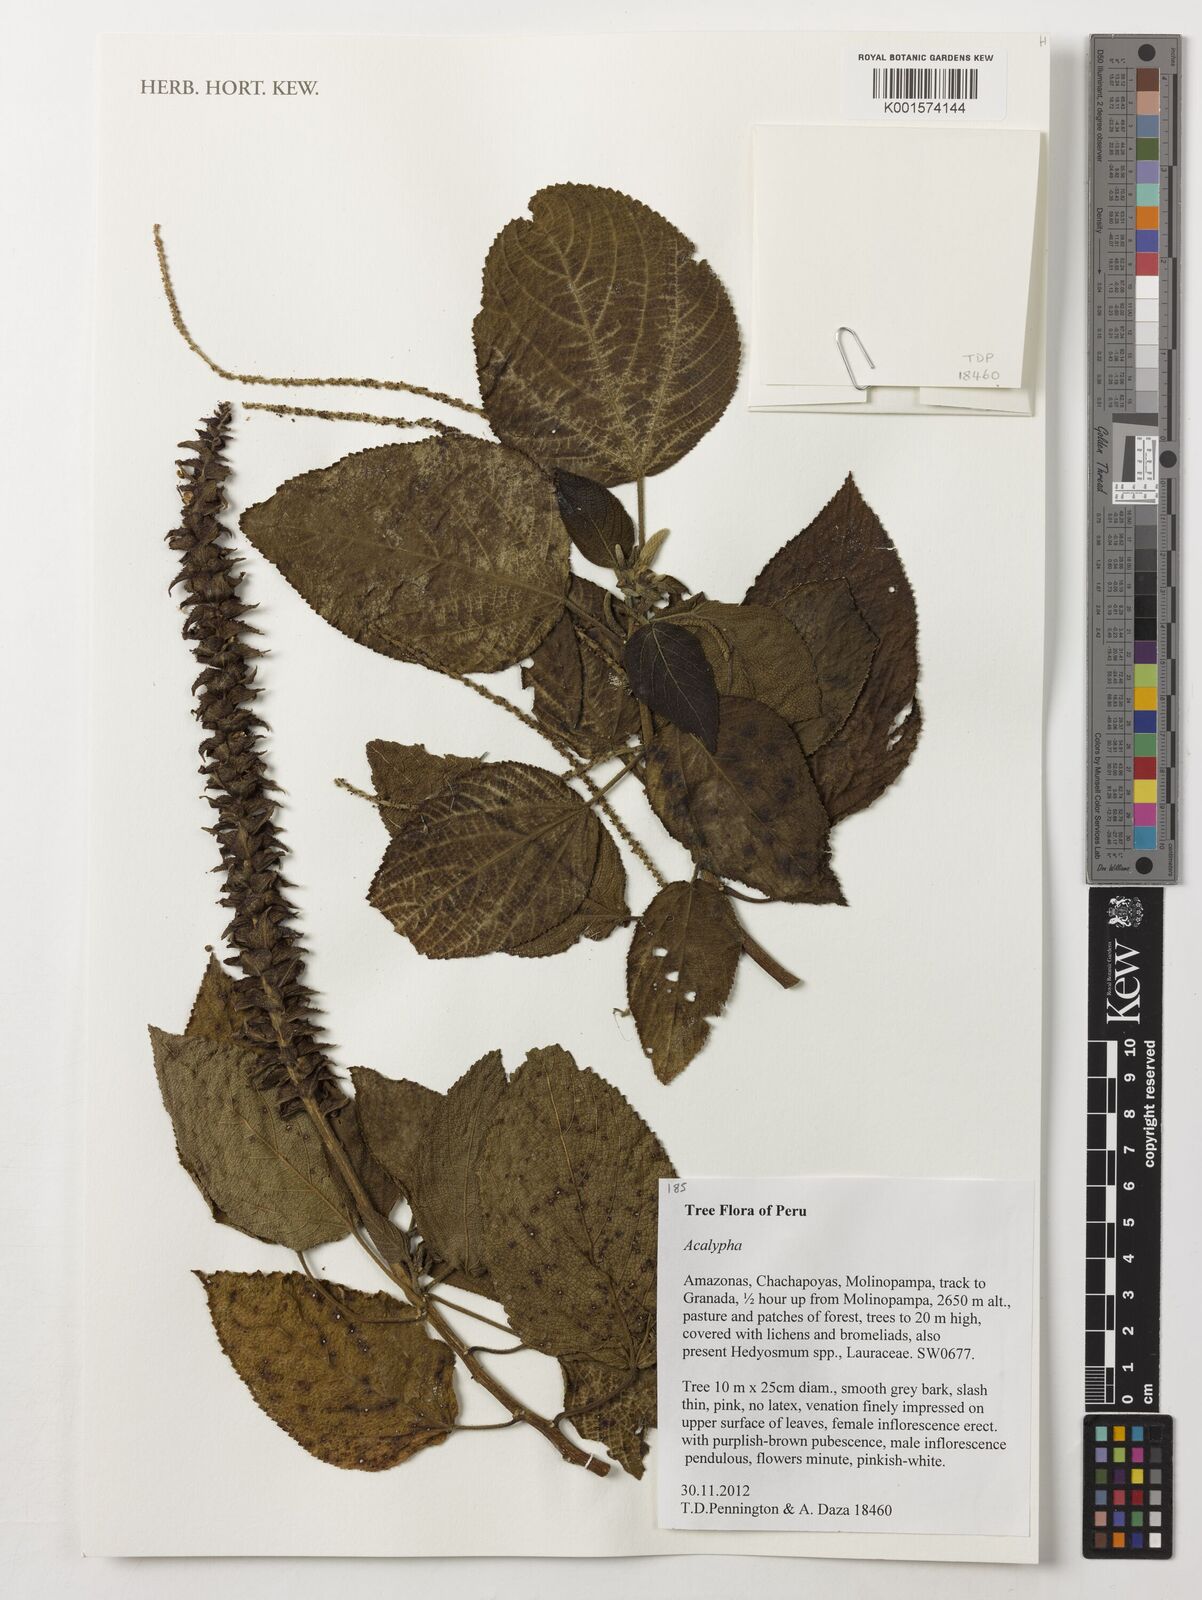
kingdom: Plantae
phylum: Tracheophyta
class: Magnoliopsida
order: Malpighiales
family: Euphorbiaceae
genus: Acalypha
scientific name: Acalypha
